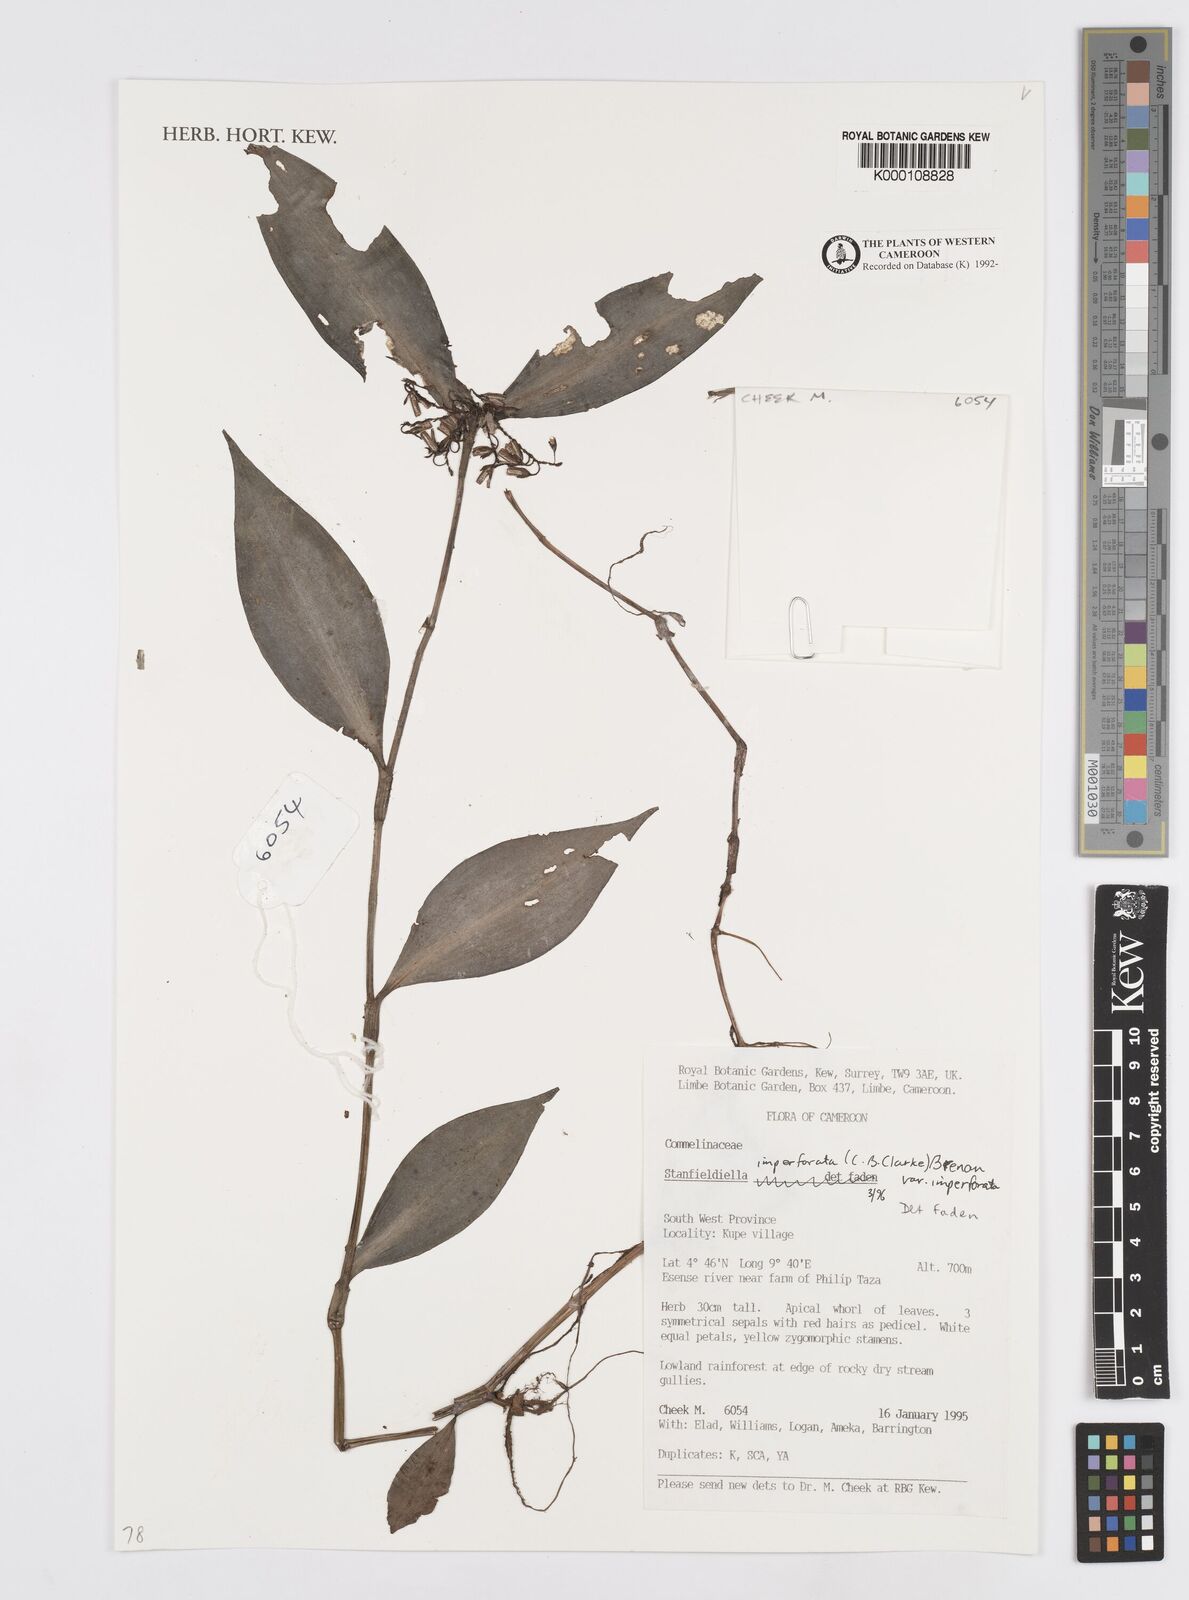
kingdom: Plantae
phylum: Tracheophyta
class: Liliopsida
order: Commelinales
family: Commelinaceae
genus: Stanfieldiella
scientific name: Stanfieldiella imperforata
